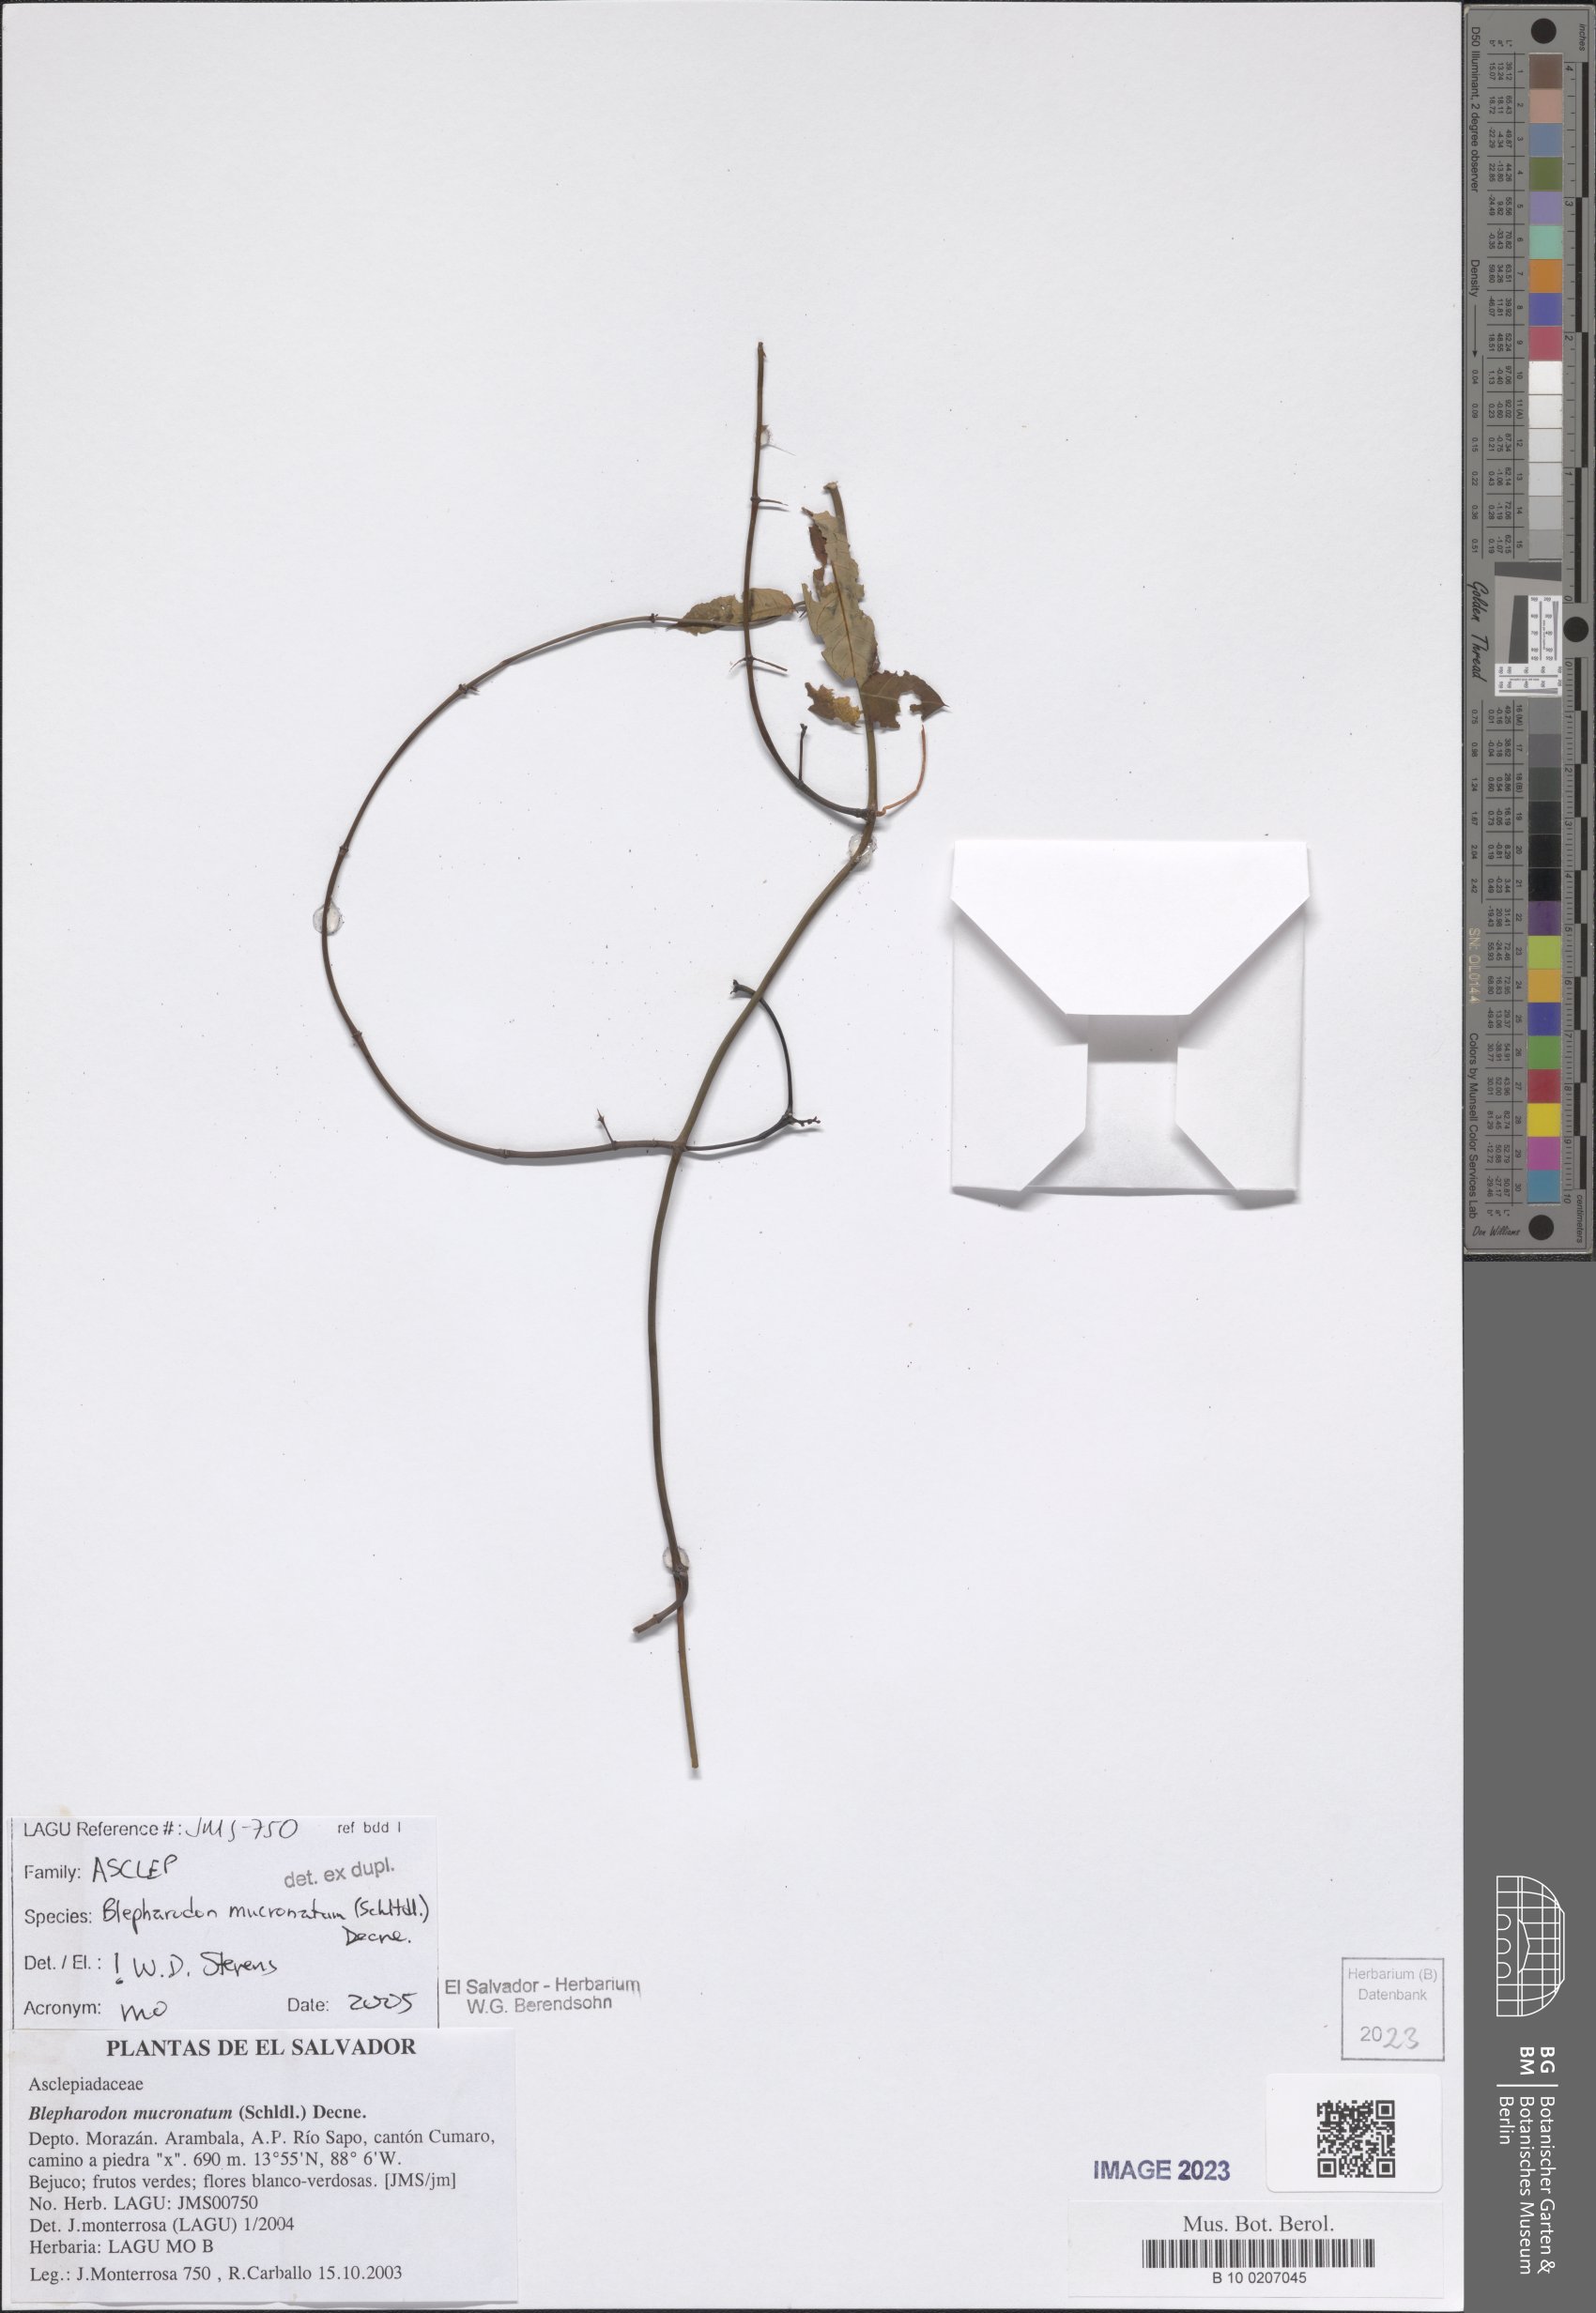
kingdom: Plantae
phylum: Tracheophyta
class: Magnoliopsida
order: Gentianales
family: Apocynaceae
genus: Vailia
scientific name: Vailia anomala
